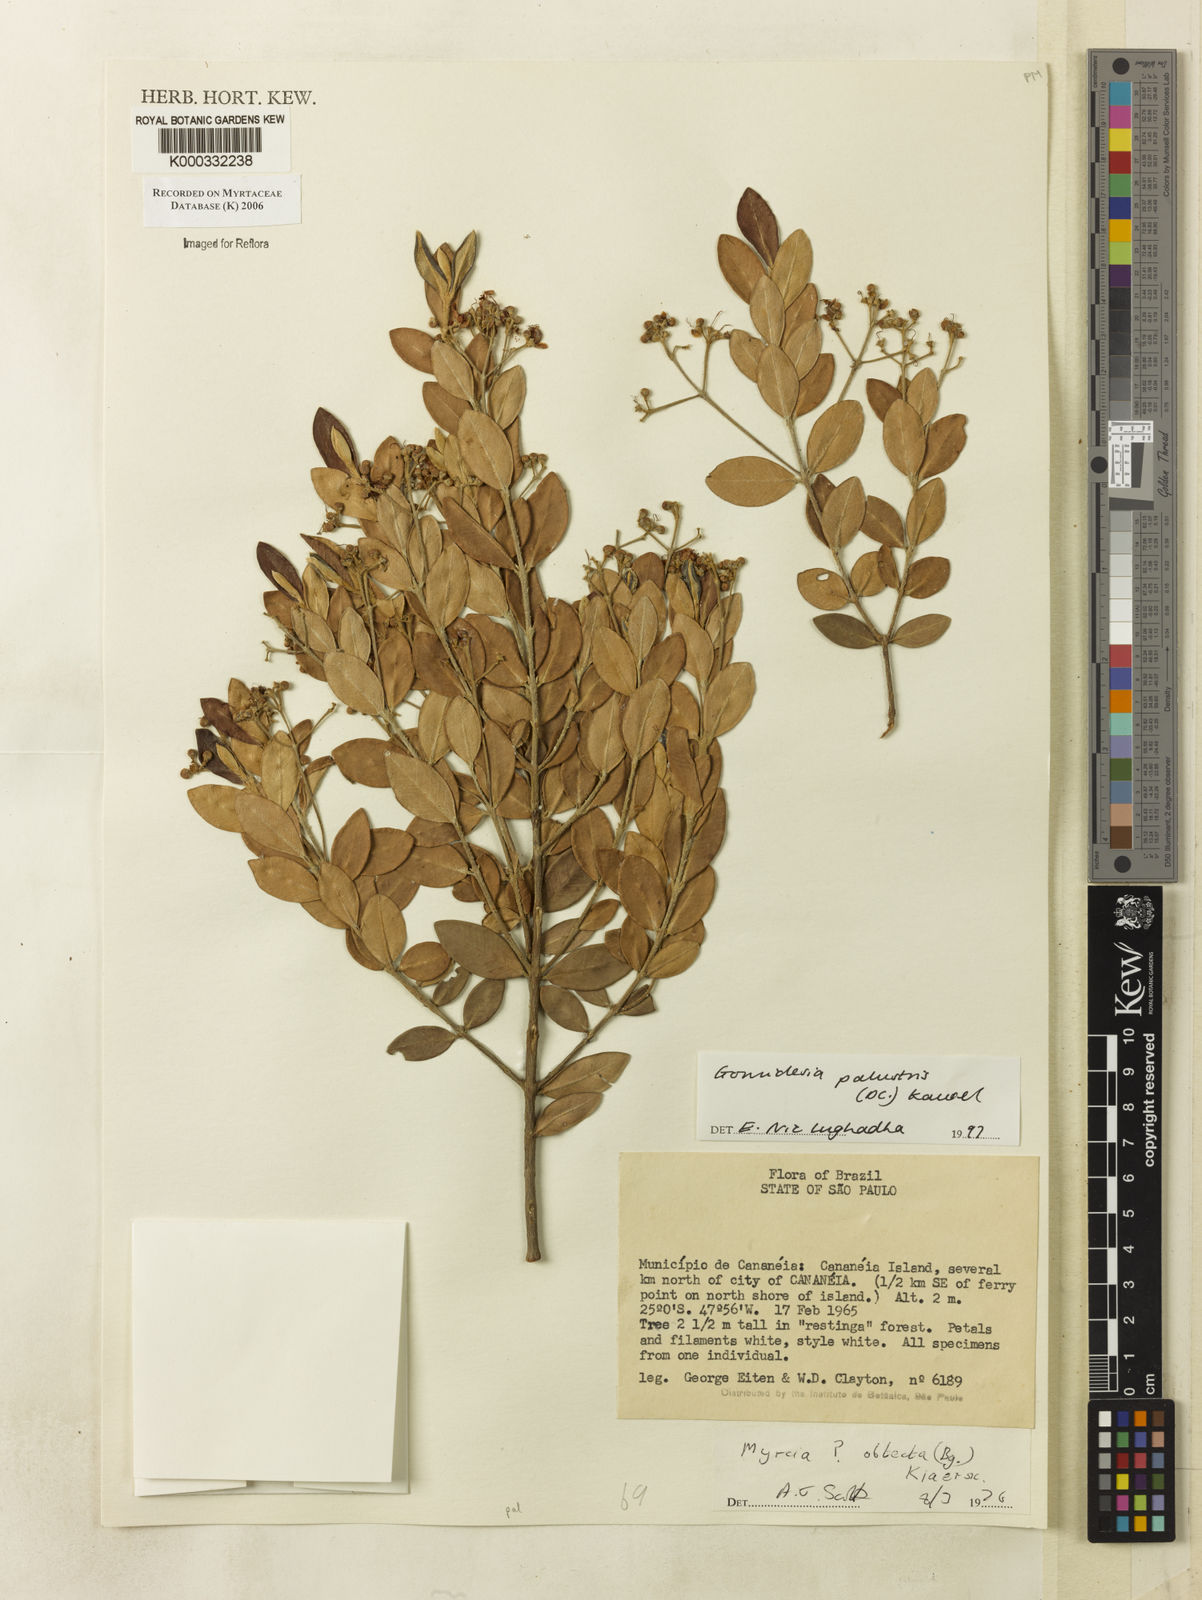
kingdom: Plantae
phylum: Tracheophyta
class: Magnoliopsida
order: Myrtales
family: Myrtaceae
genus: Myrcia
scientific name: Myrcia palustris
